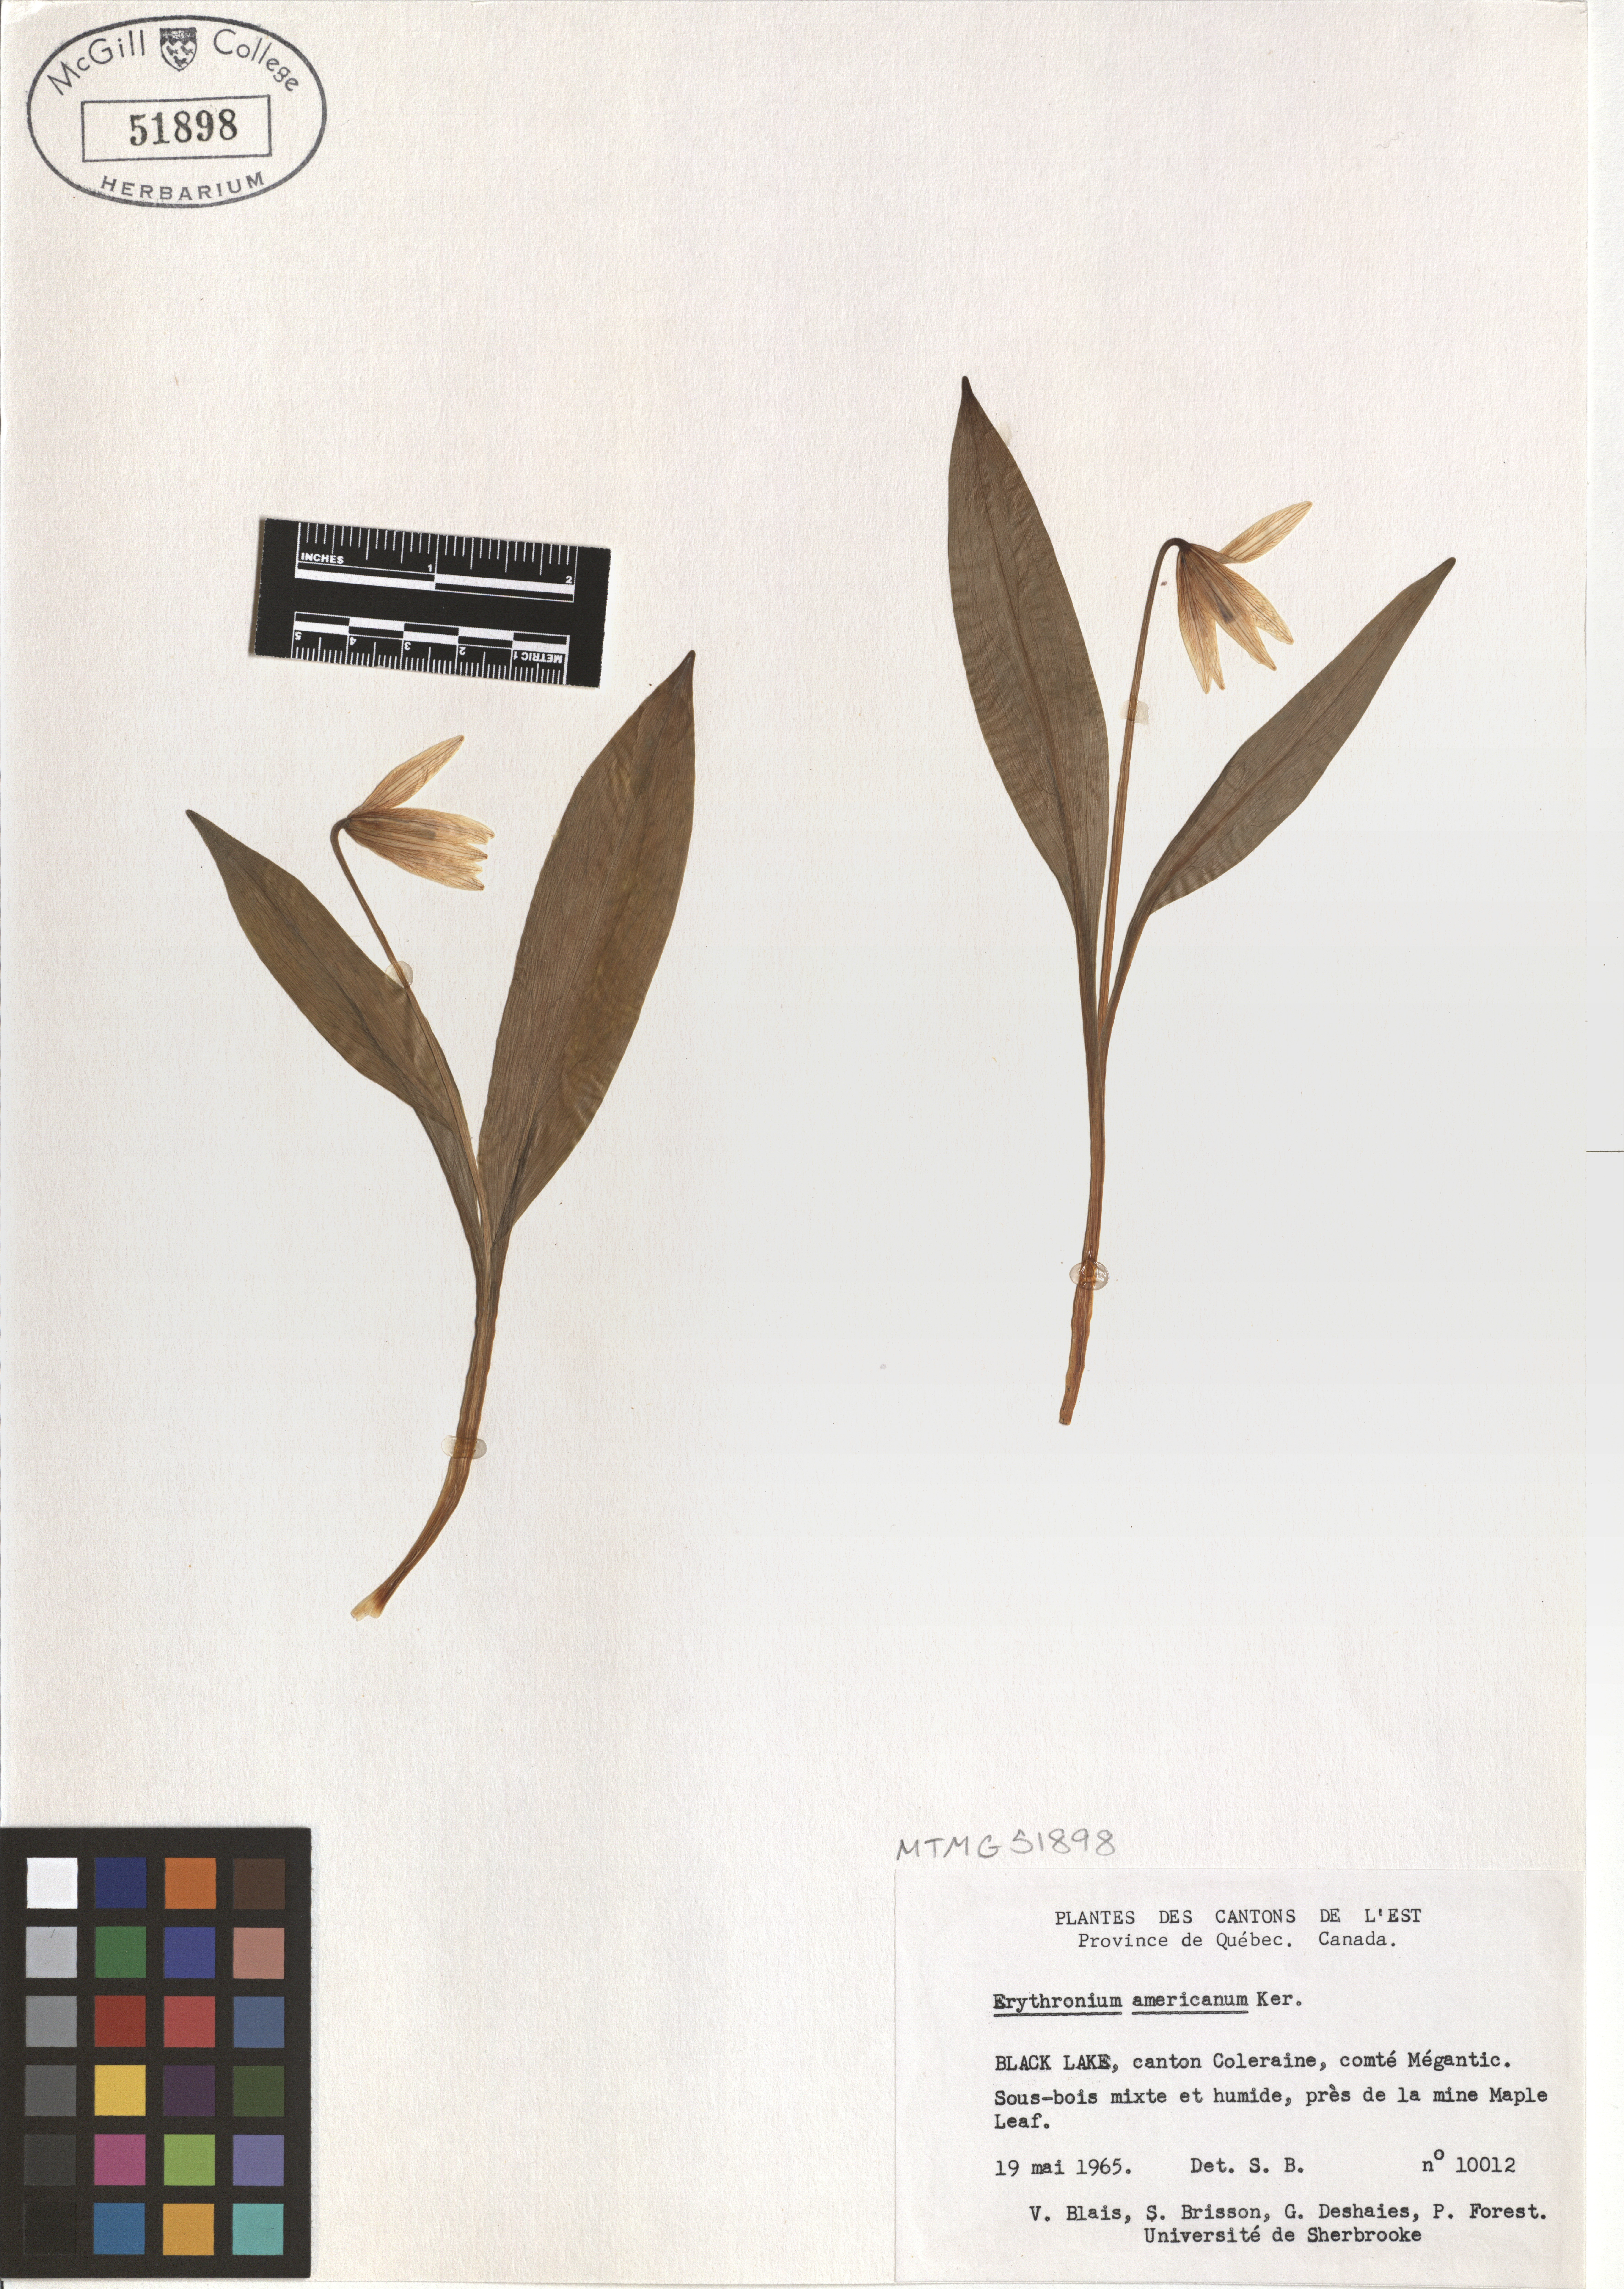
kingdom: Plantae
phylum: Tracheophyta
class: Liliopsida
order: Liliales
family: Liliaceae
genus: Erythronium
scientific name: Erythronium americanum
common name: Yellow adder's-tongue
